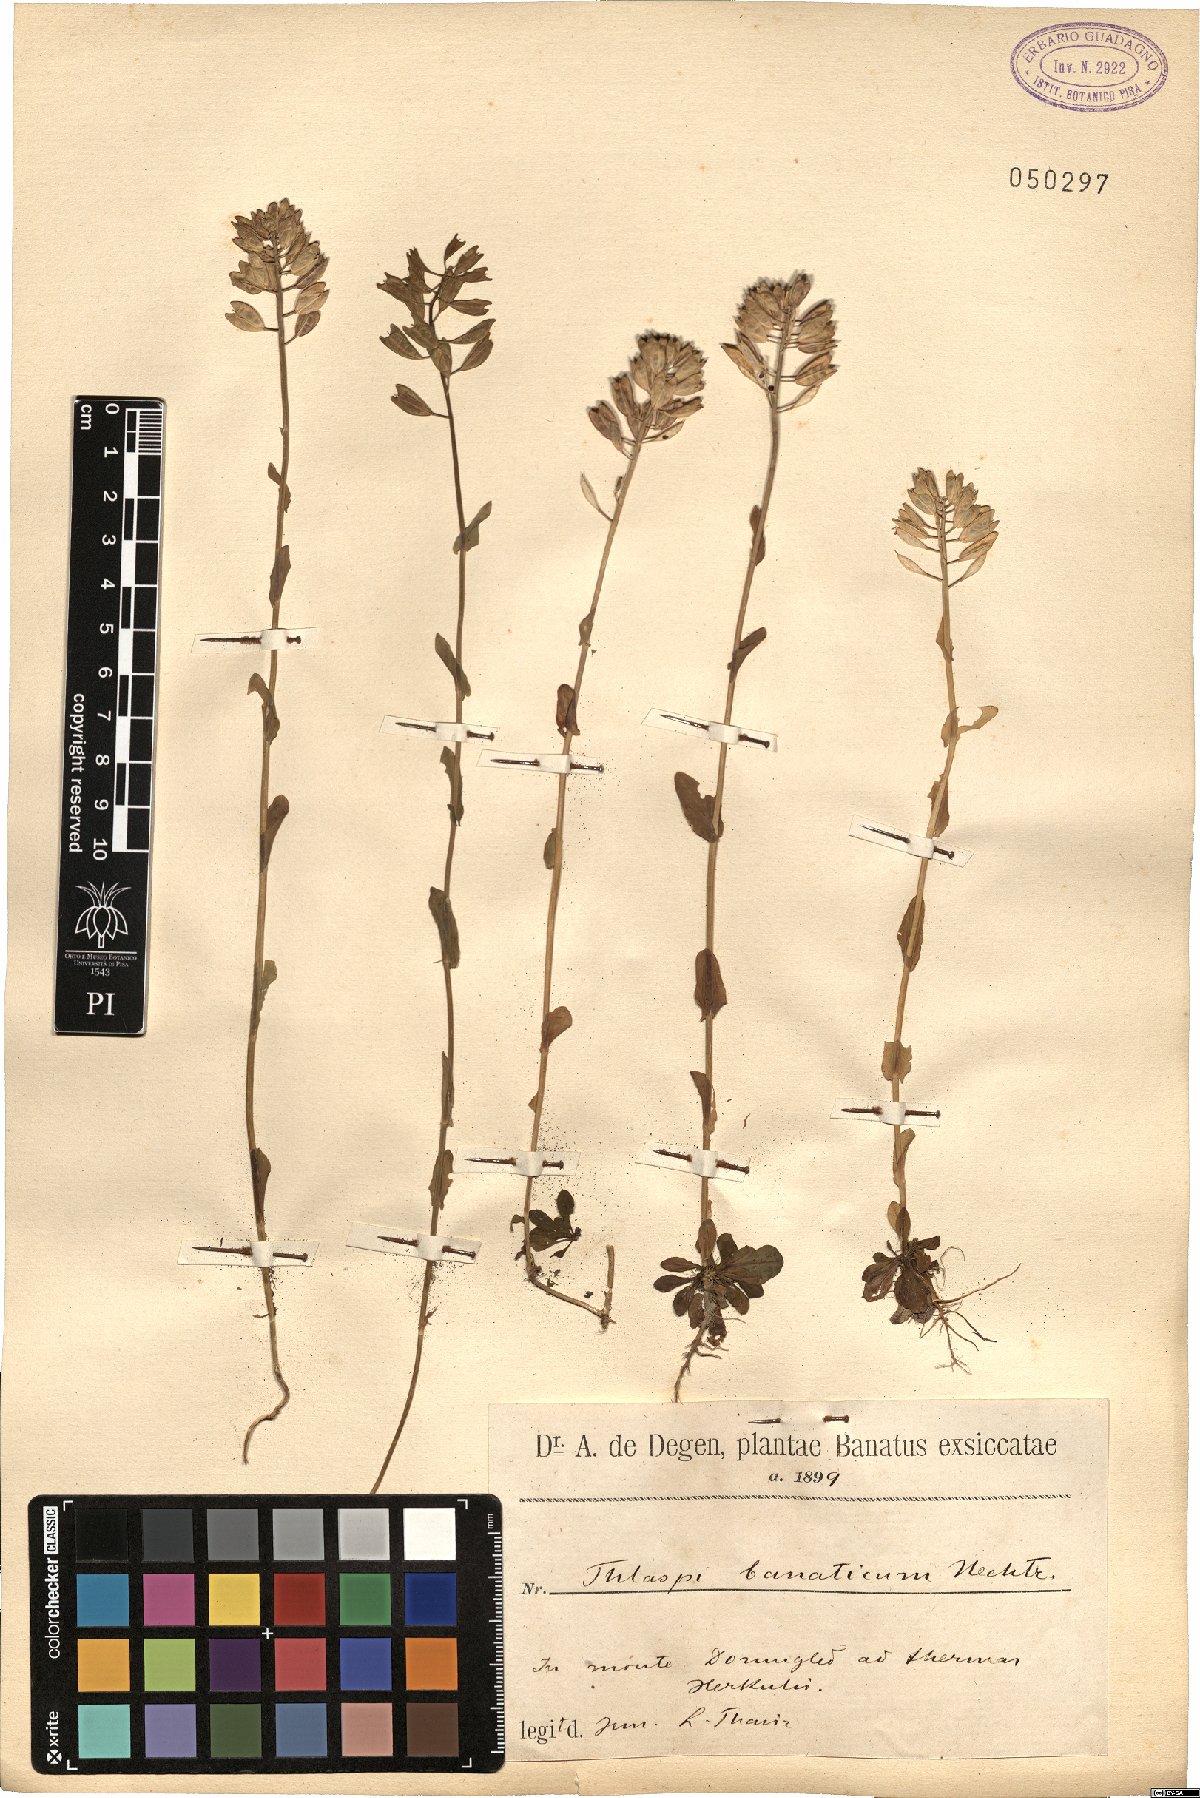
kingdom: Plantae
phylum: Tracheophyta
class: Magnoliopsida
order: Brassicales
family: Brassicaceae
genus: Noccaea
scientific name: Noccaea banatica
